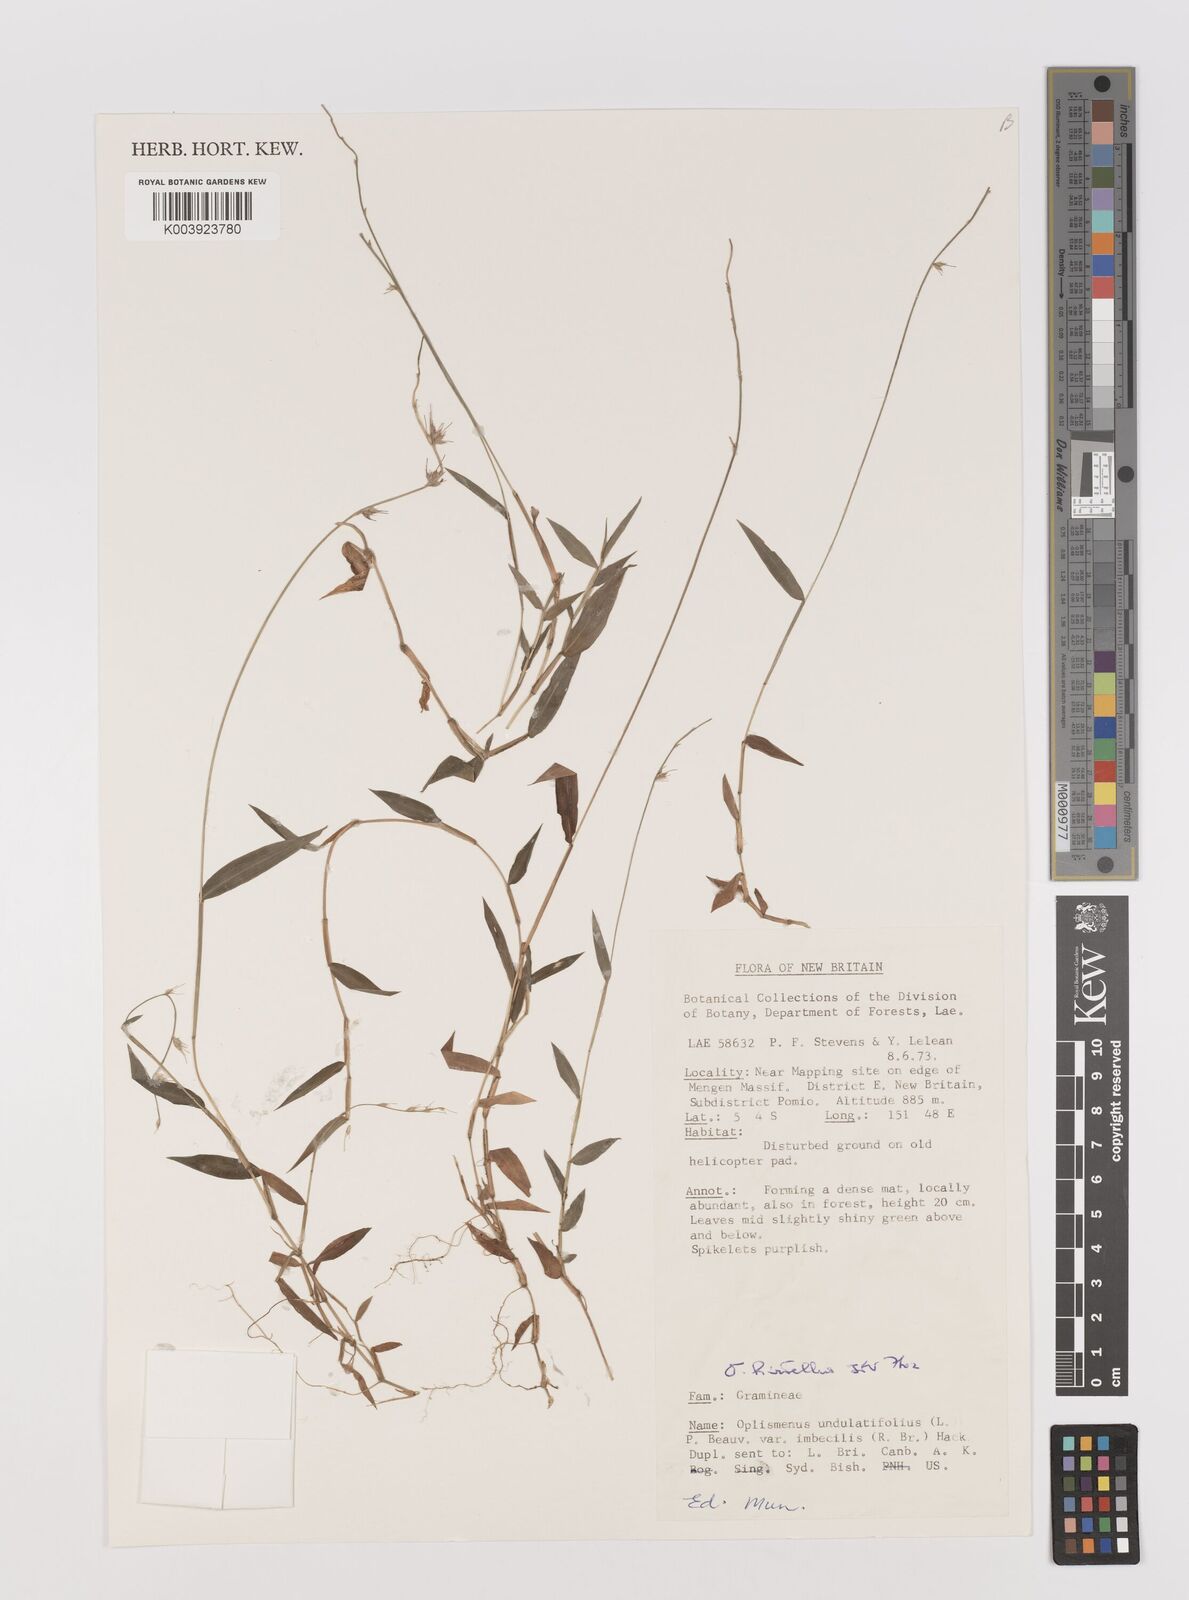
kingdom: Plantae
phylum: Tracheophyta
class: Liliopsida
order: Poales
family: Poaceae
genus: Oplismenus
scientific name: Oplismenus hirtellus
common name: Basketgrass
